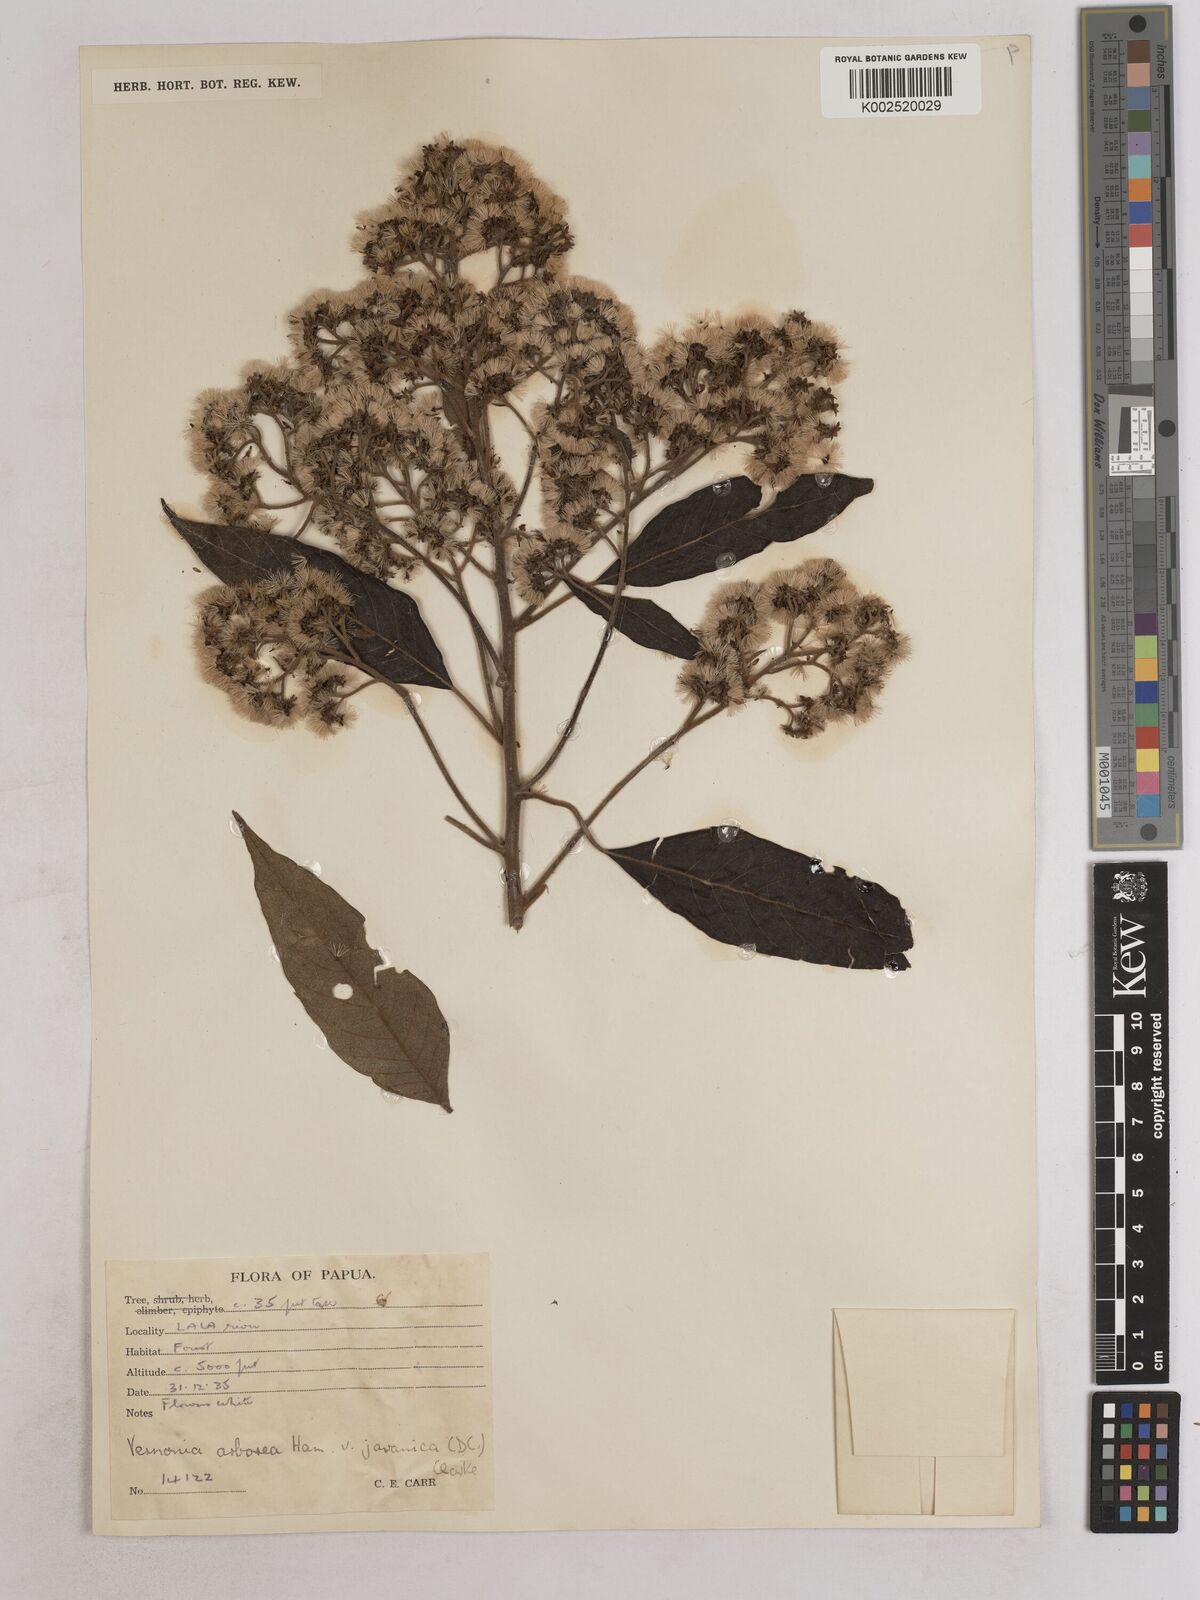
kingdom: Plantae
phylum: Tracheophyta
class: Magnoliopsida
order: Asterales
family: Asteraceae
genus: Strobocalyx
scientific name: Strobocalyx arborea
